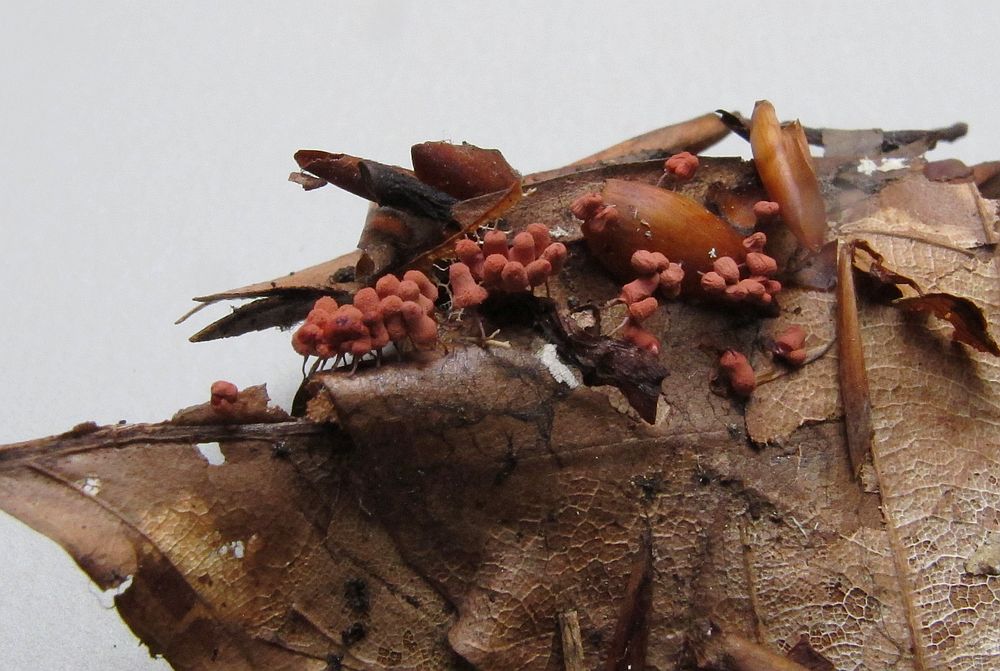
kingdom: Protozoa
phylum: Mycetozoa
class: Myxomycetes
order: Trichiales
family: Arcyriaceae
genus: Arcyria
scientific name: Arcyria denudata
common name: karminrød skålsvøb
